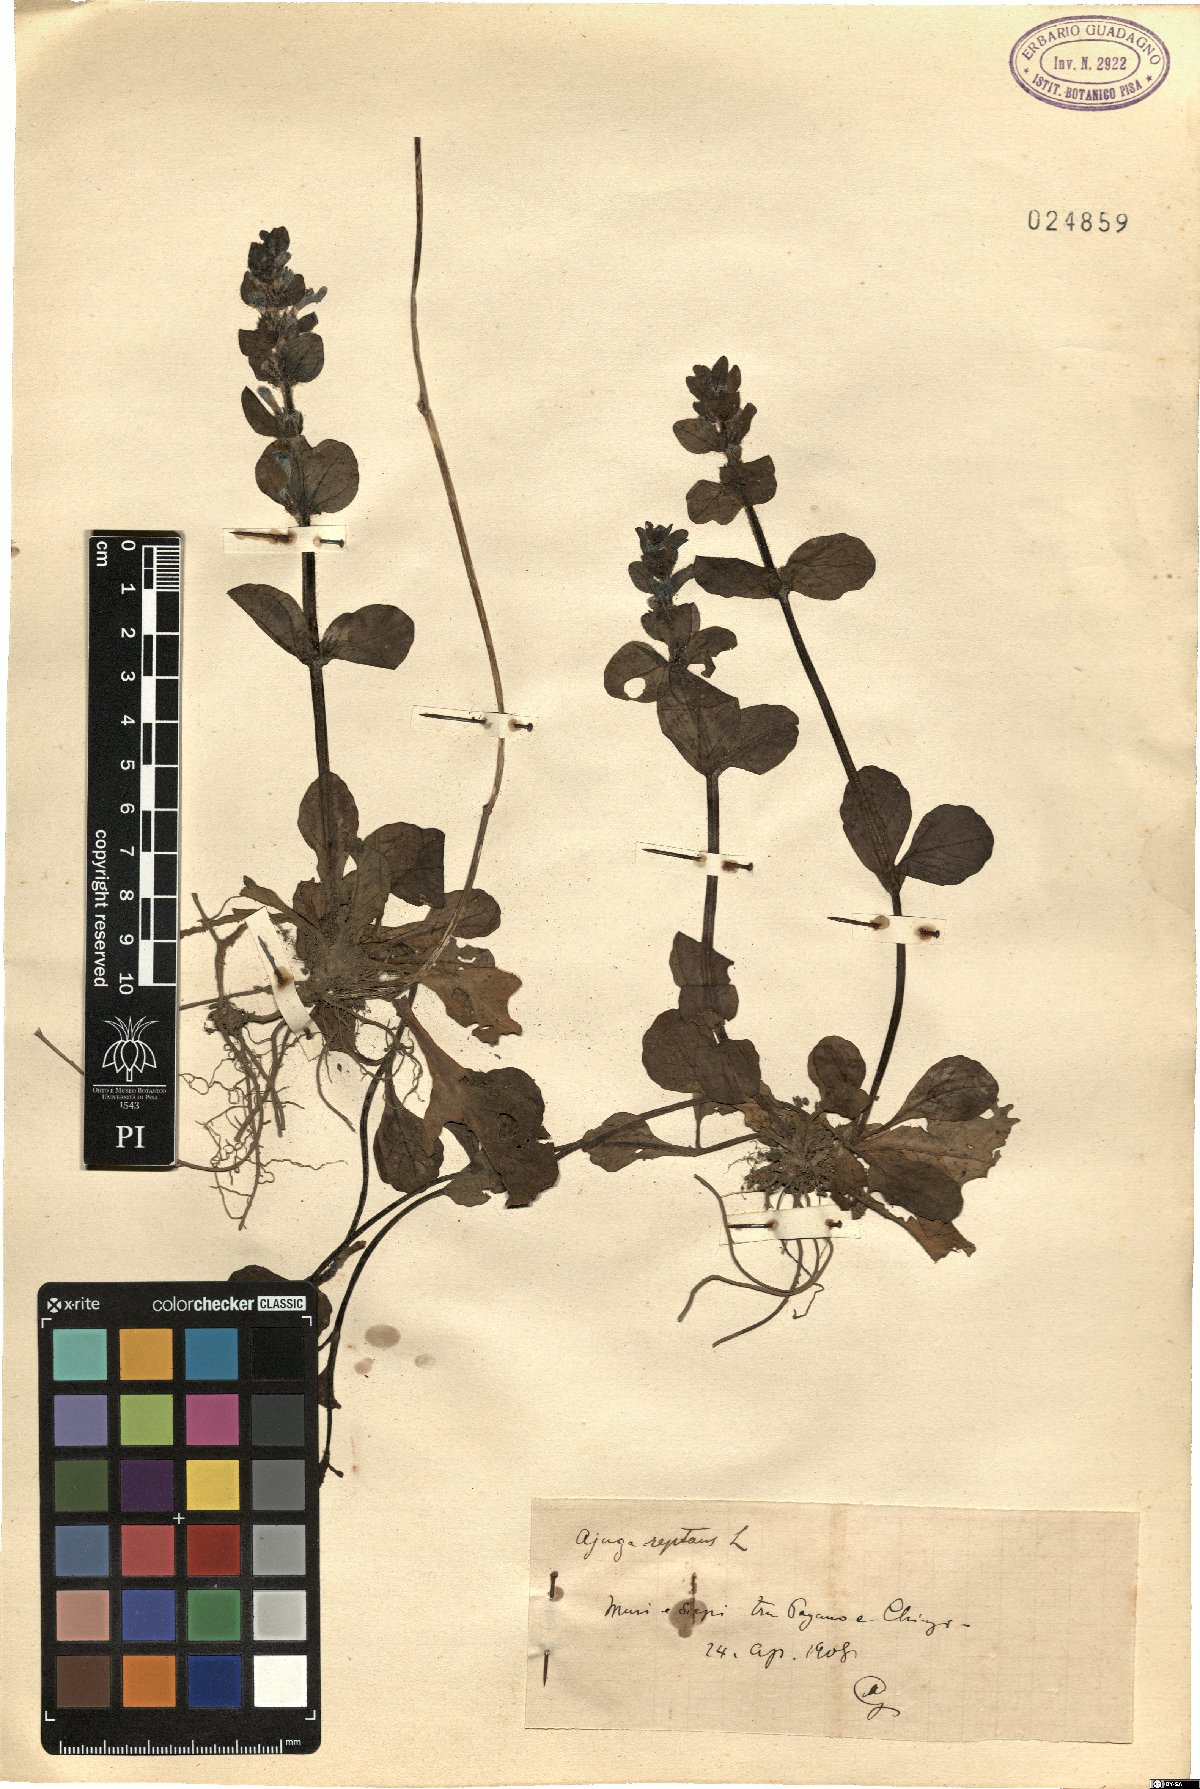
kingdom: Plantae
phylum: Tracheophyta
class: Magnoliopsida
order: Lamiales
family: Lamiaceae
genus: Ajuga
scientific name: Ajuga reptans
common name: Bugle
